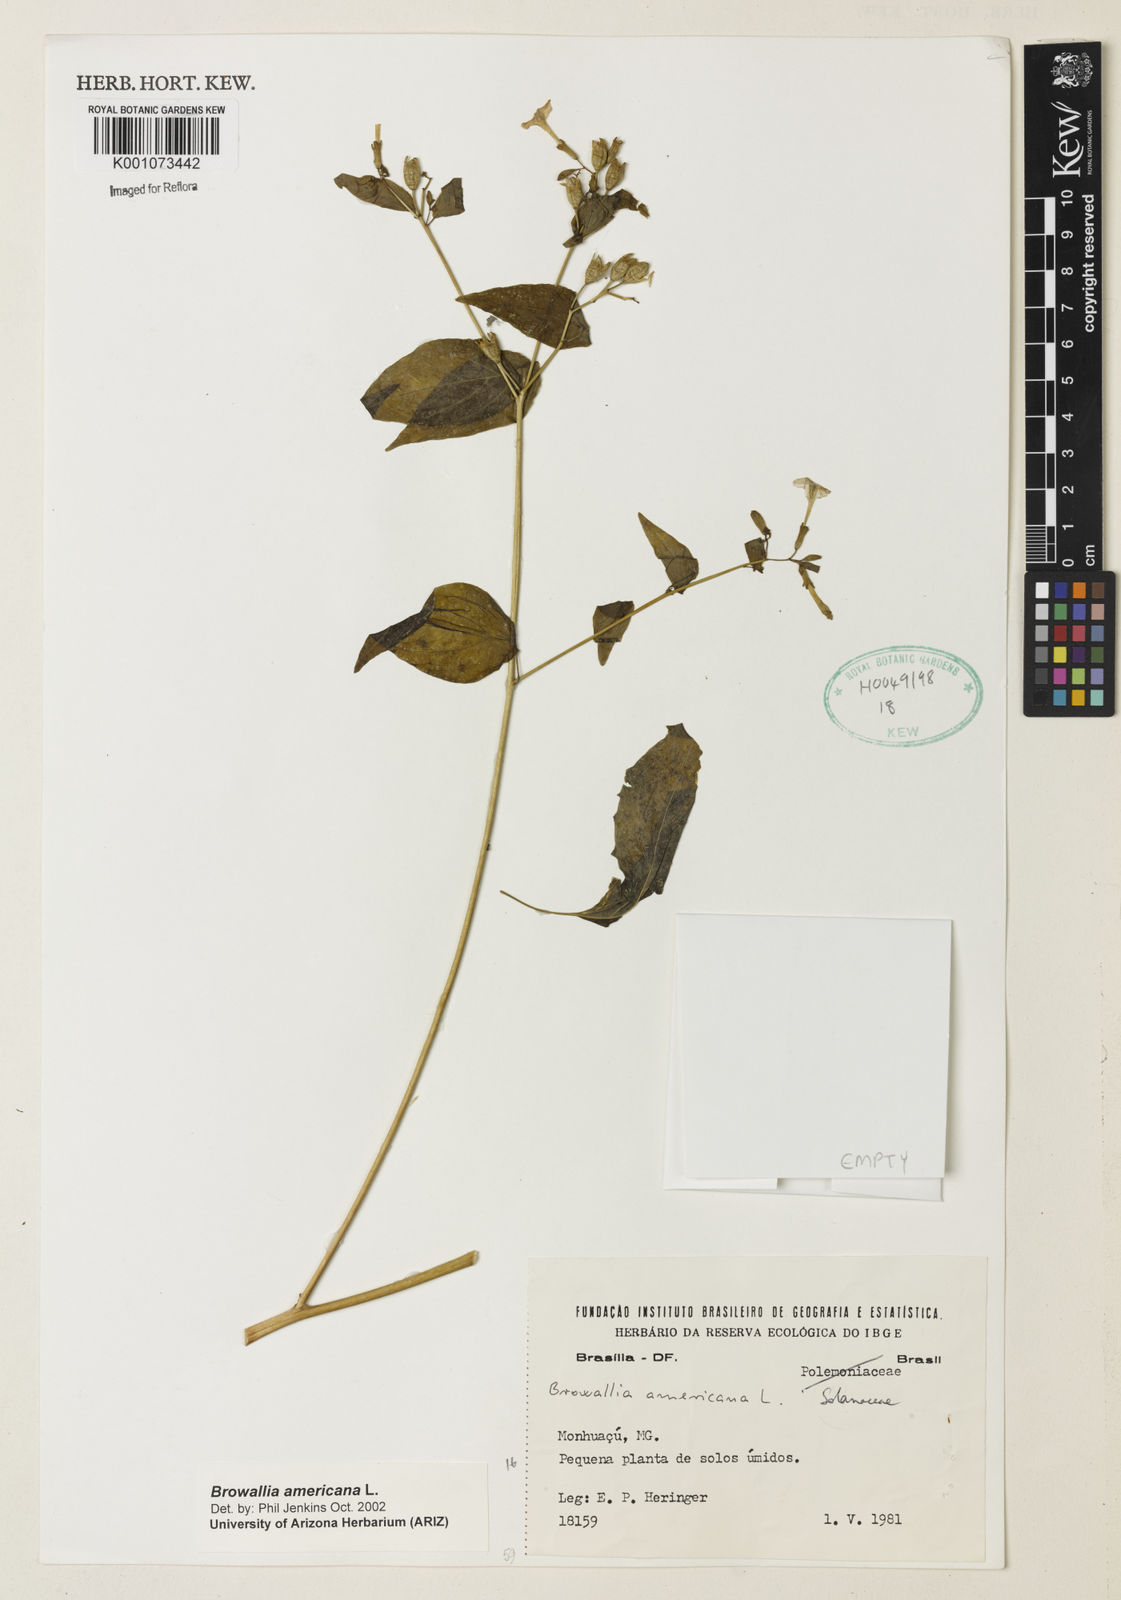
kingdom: Plantae
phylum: Tracheophyta
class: Magnoliopsida
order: Solanales
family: Solanaceae
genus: Browallia
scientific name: Browallia americana
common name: Jamaican forget-me-not
